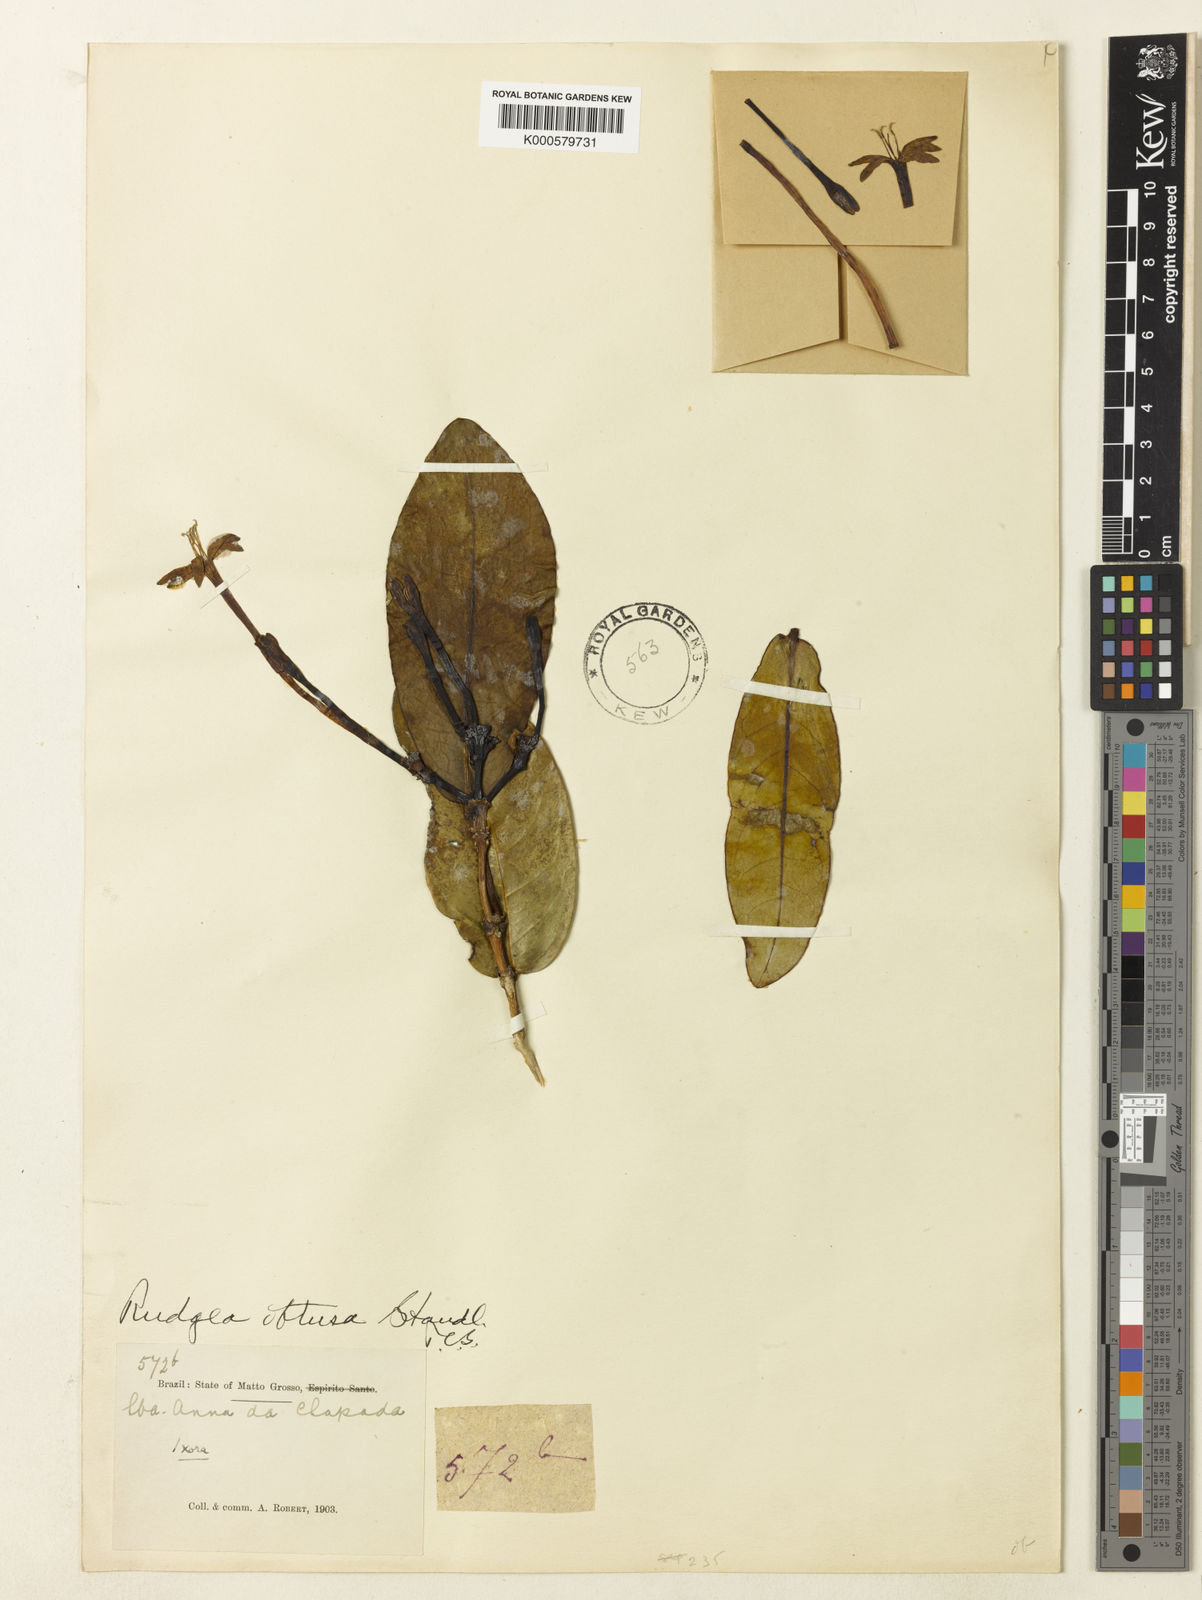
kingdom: Plantae
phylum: Tracheophyta
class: Magnoliopsida
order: Gentianales
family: Rubiaceae
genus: Rudgea
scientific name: Rudgea goyazensis
